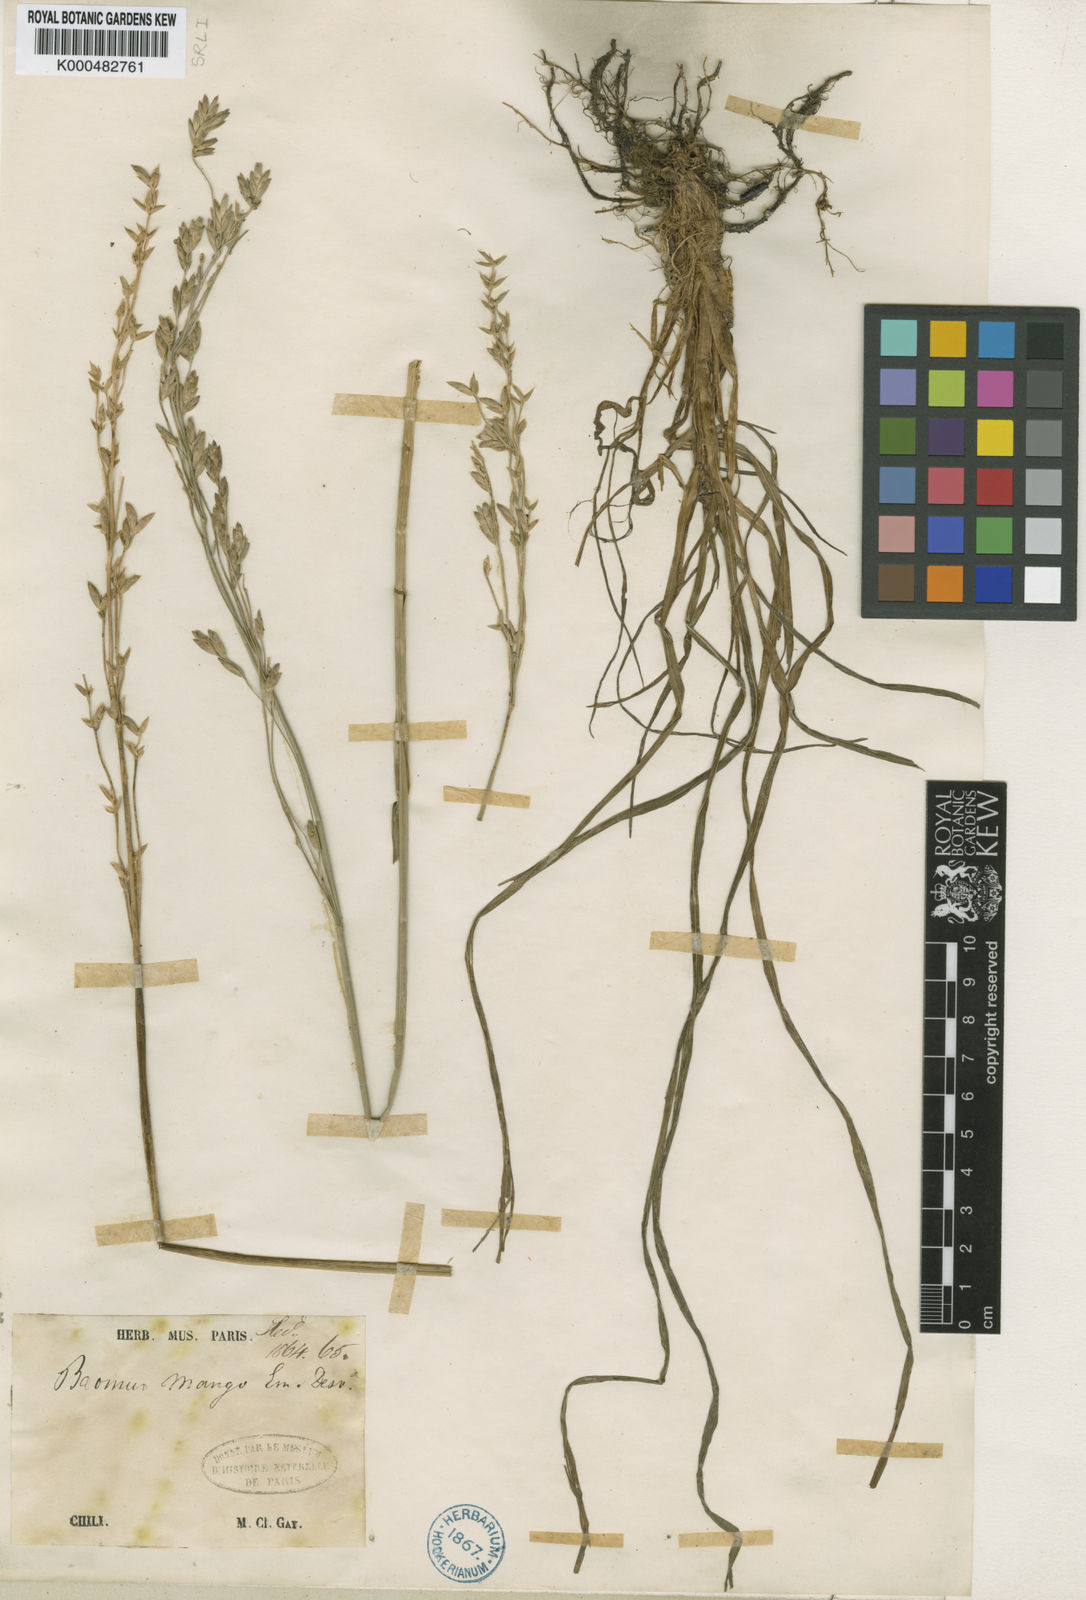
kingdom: Plantae
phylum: Tracheophyta
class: Liliopsida
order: Poales
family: Poaceae
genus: Bromus
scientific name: Bromus mango
